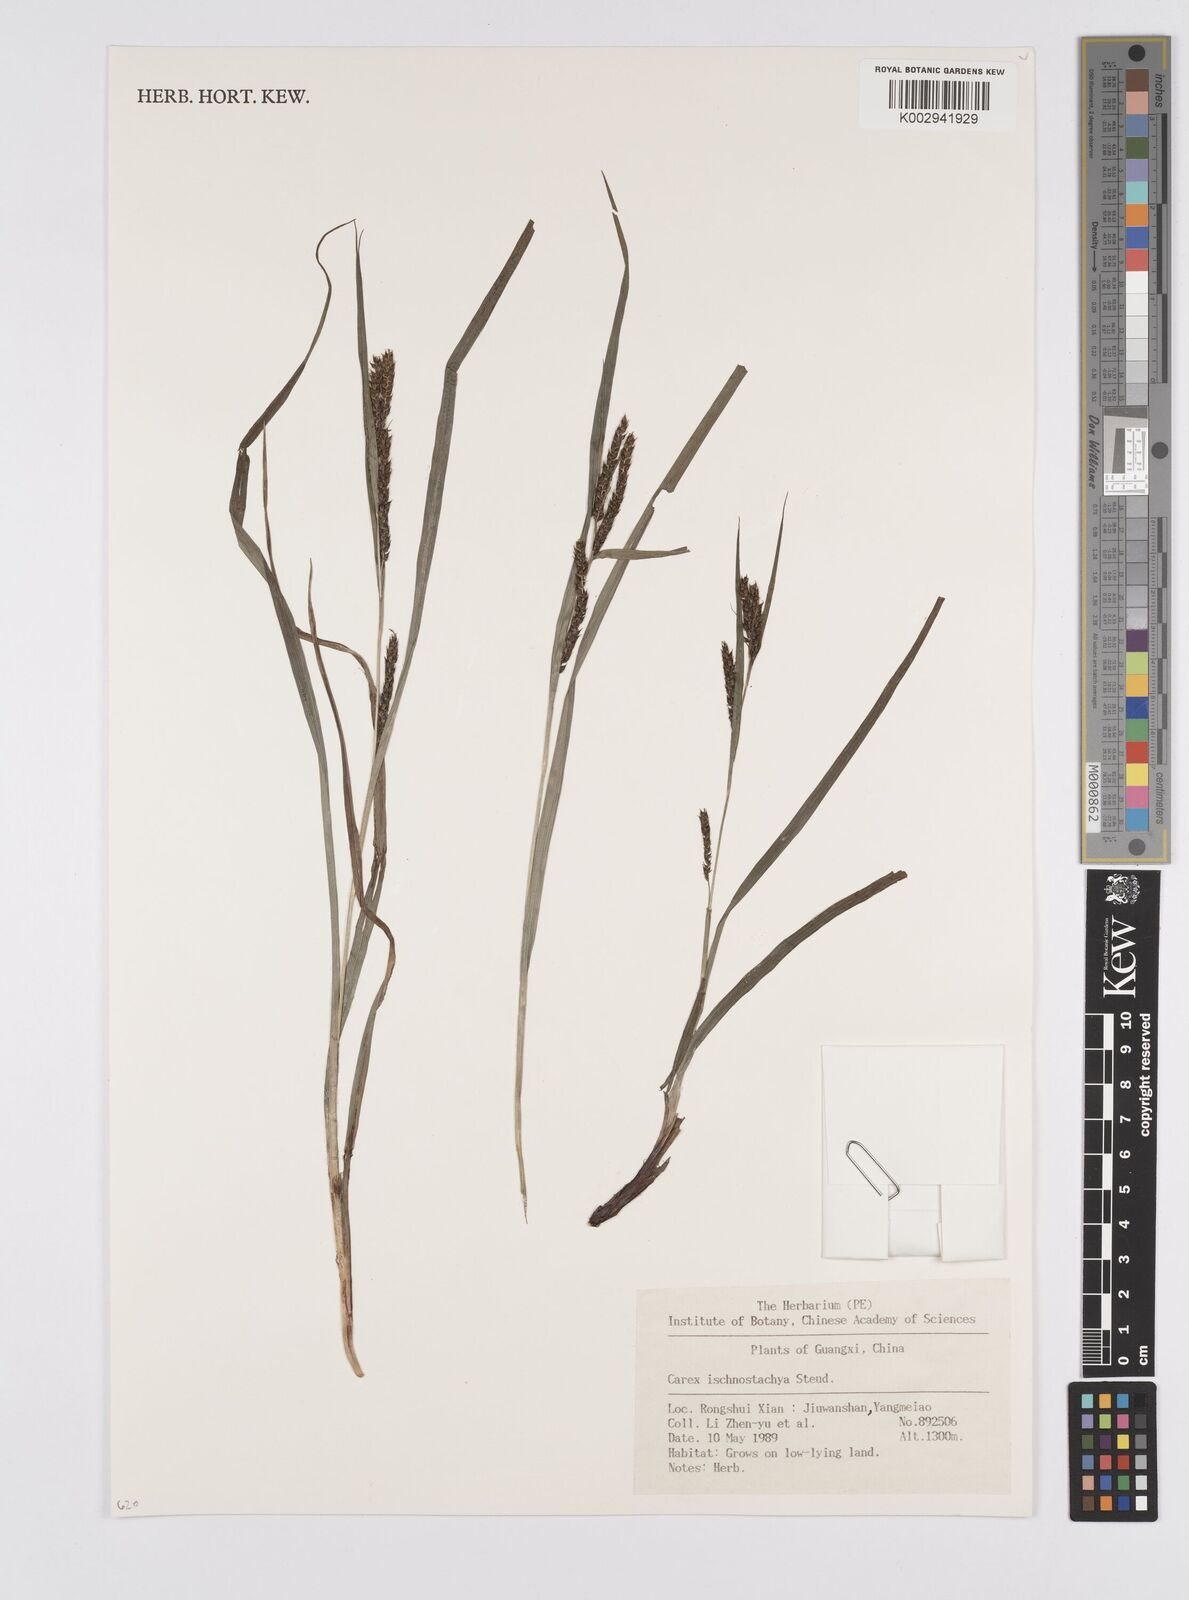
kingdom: Plantae
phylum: Tracheophyta
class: Liliopsida
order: Poales
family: Cyperaceae
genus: Carex
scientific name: Carex ischnostachya
